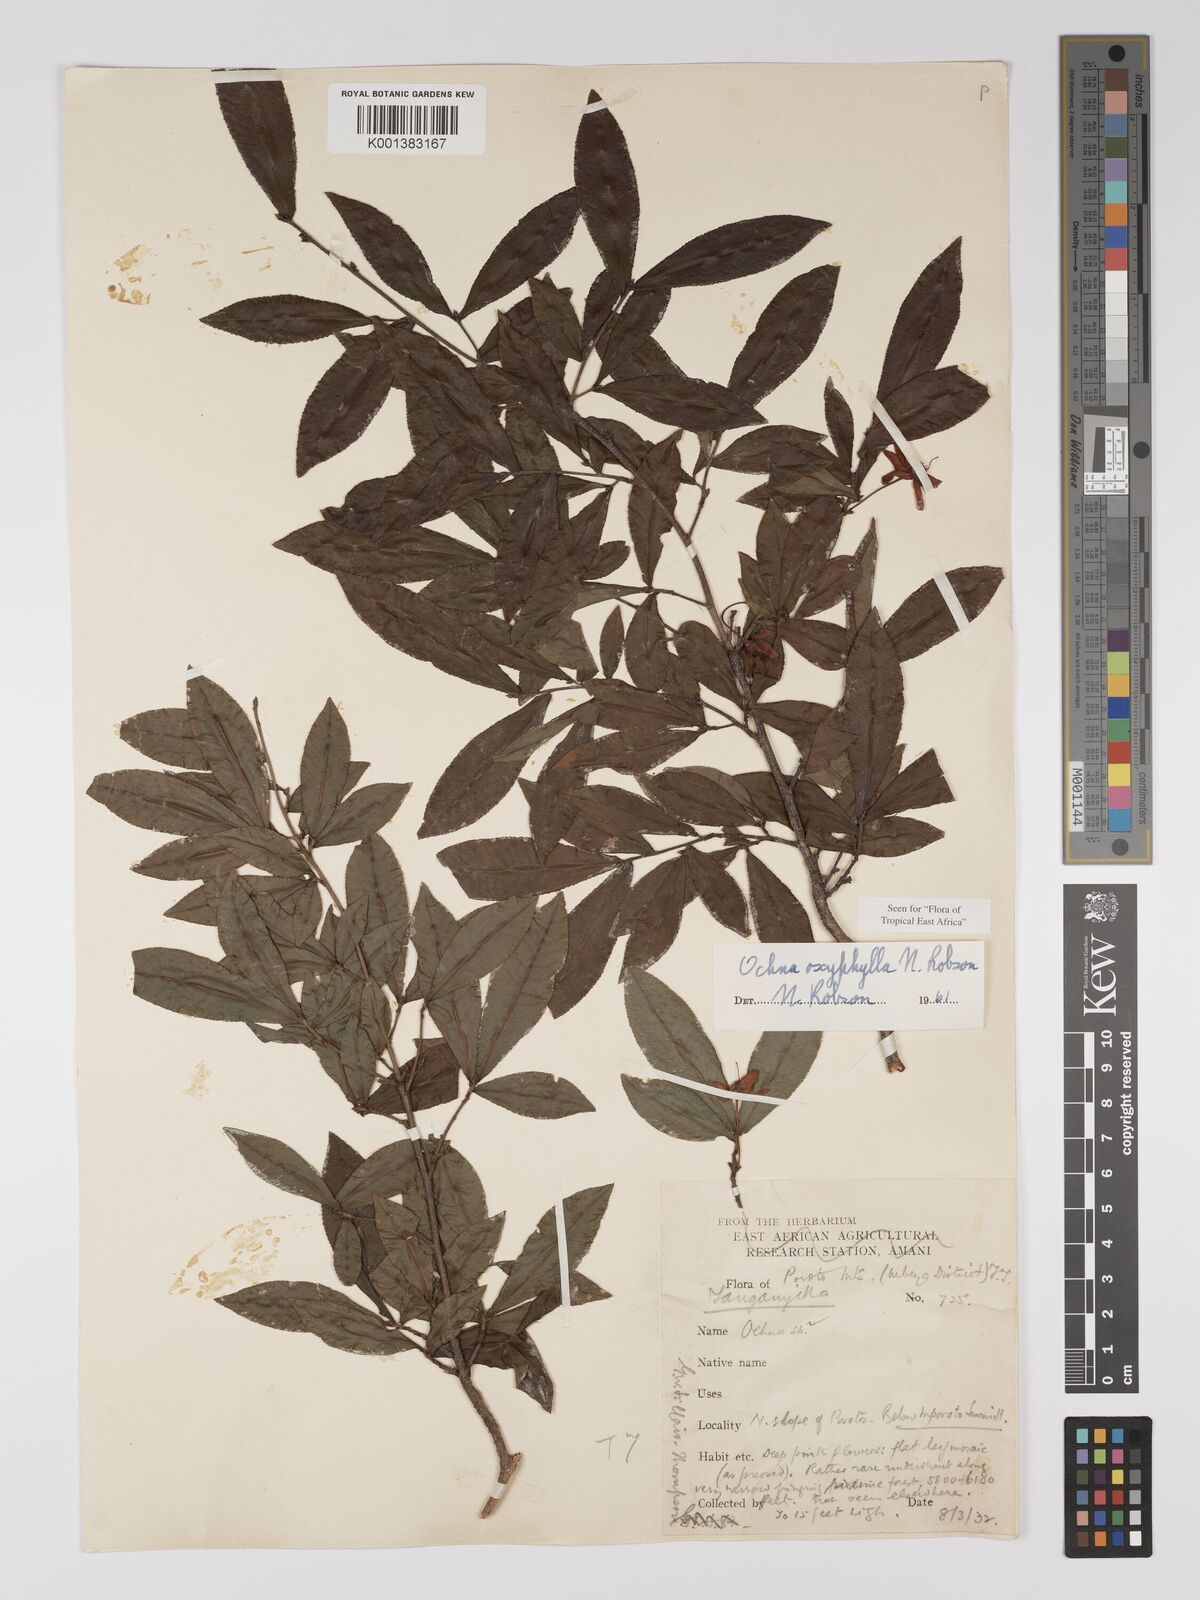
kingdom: Plantae
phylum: Tracheophyta
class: Magnoliopsida
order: Malpighiales
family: Ochnaceae
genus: Ochna
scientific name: Ochna oxyphylla
